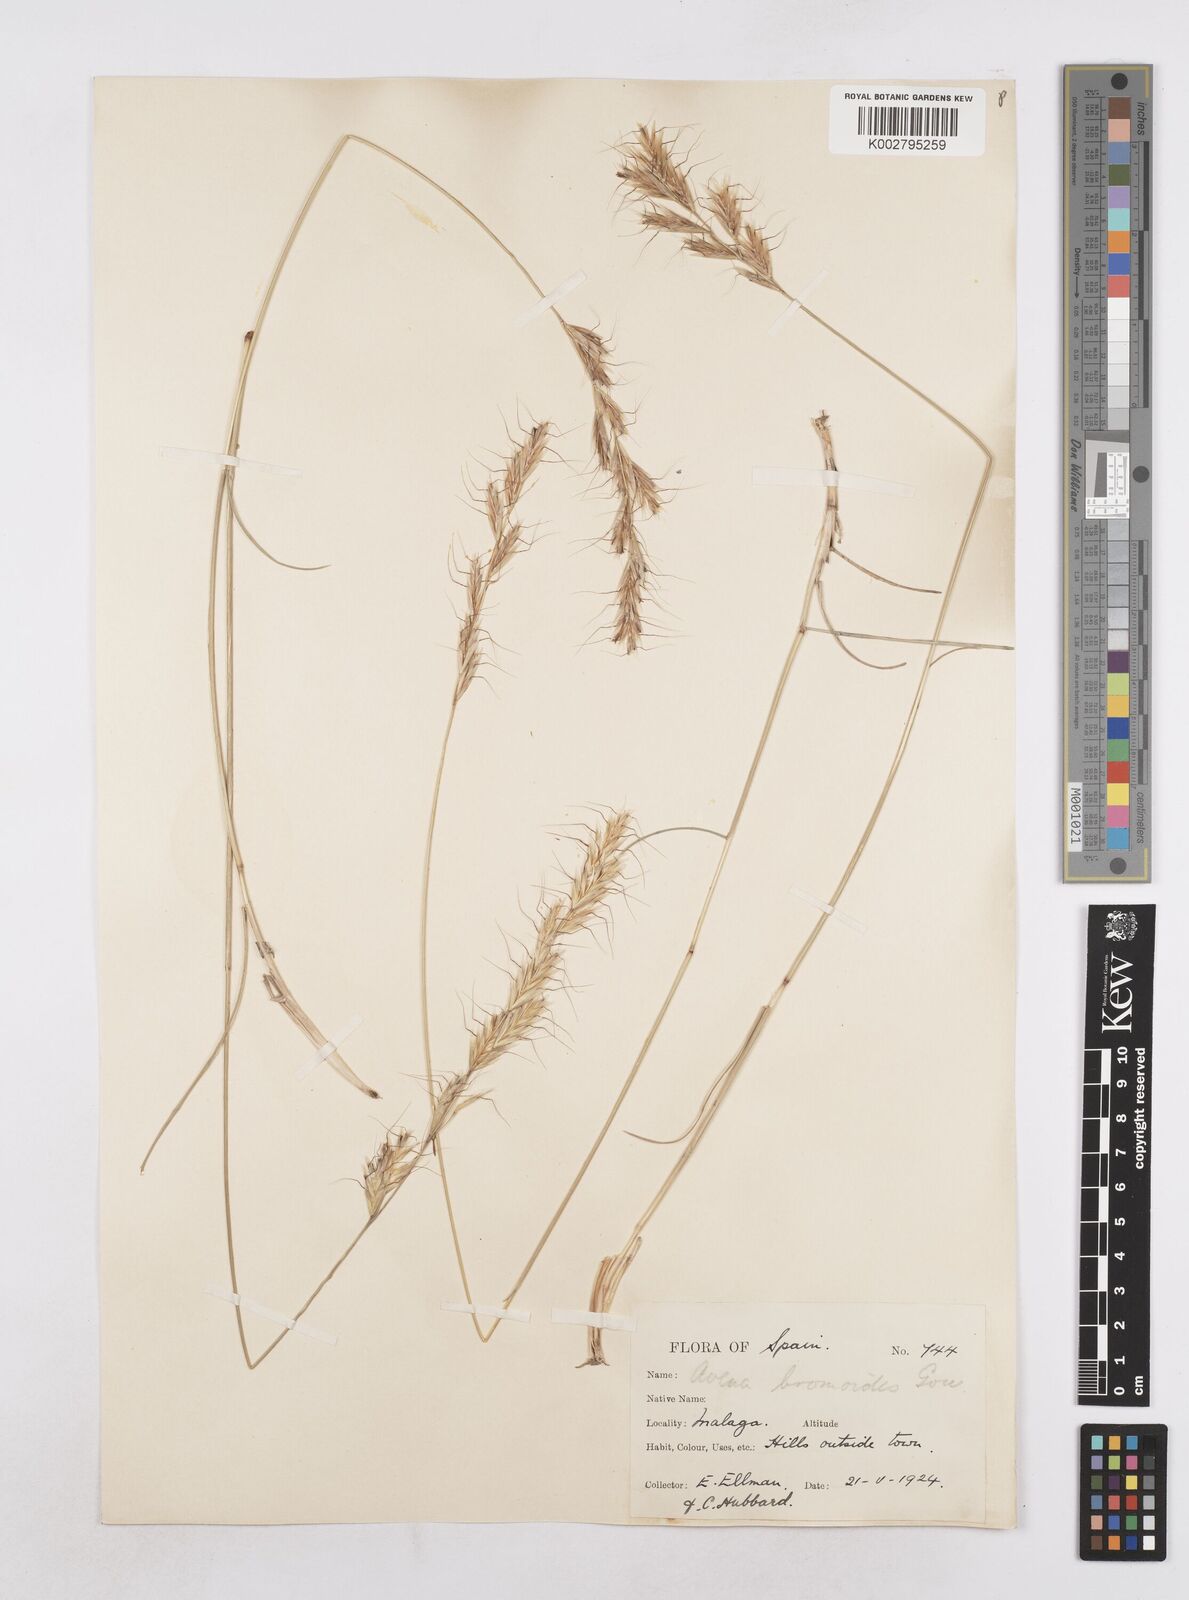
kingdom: Plantae
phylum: Tracheophyta
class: Liliopsida
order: Poales
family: Poaceae
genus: Helictochloa
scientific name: Helictochloa bromoides
